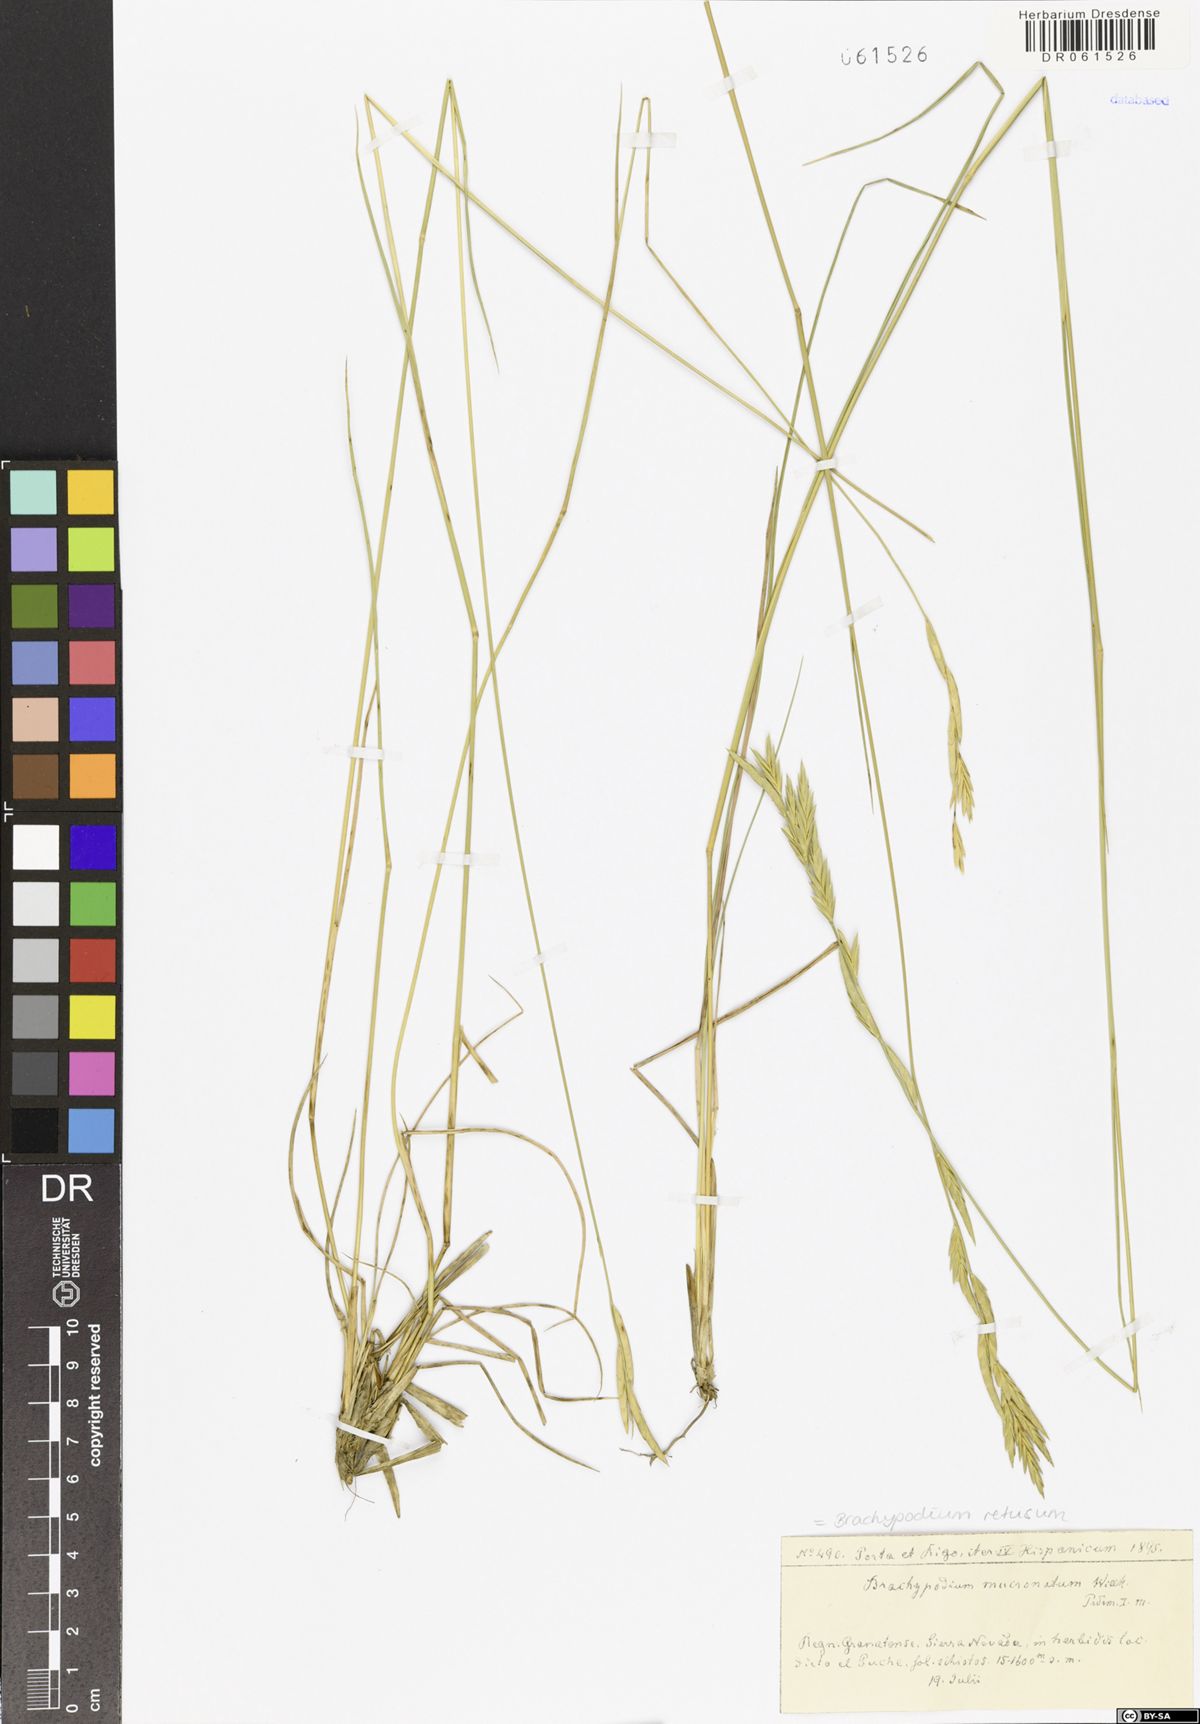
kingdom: Plantae
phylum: Tracheophyta
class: Liliopsida
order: Poales
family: Poaceae
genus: Brachypodium
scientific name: Brachypodium retusum
